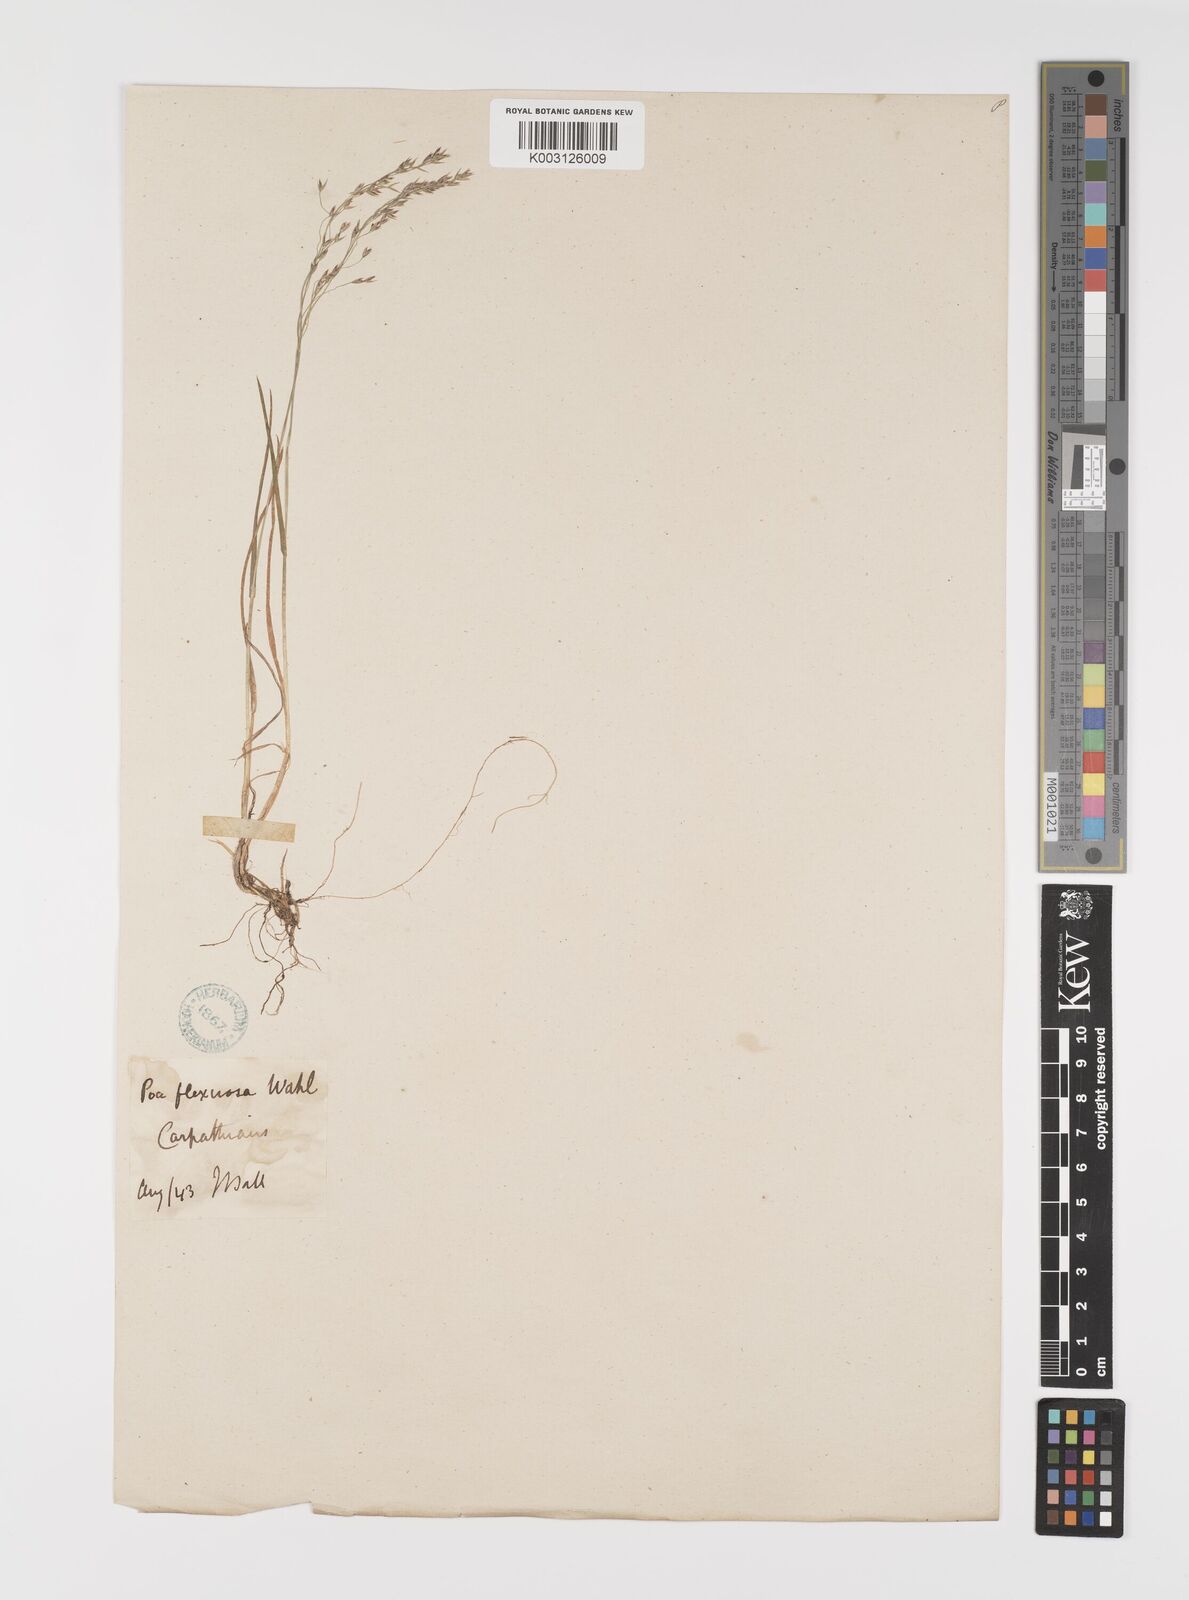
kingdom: Plantae
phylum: Tracheophyta
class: Liliopsida
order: Poales
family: Poaceae
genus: Poa
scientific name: Poa minor
